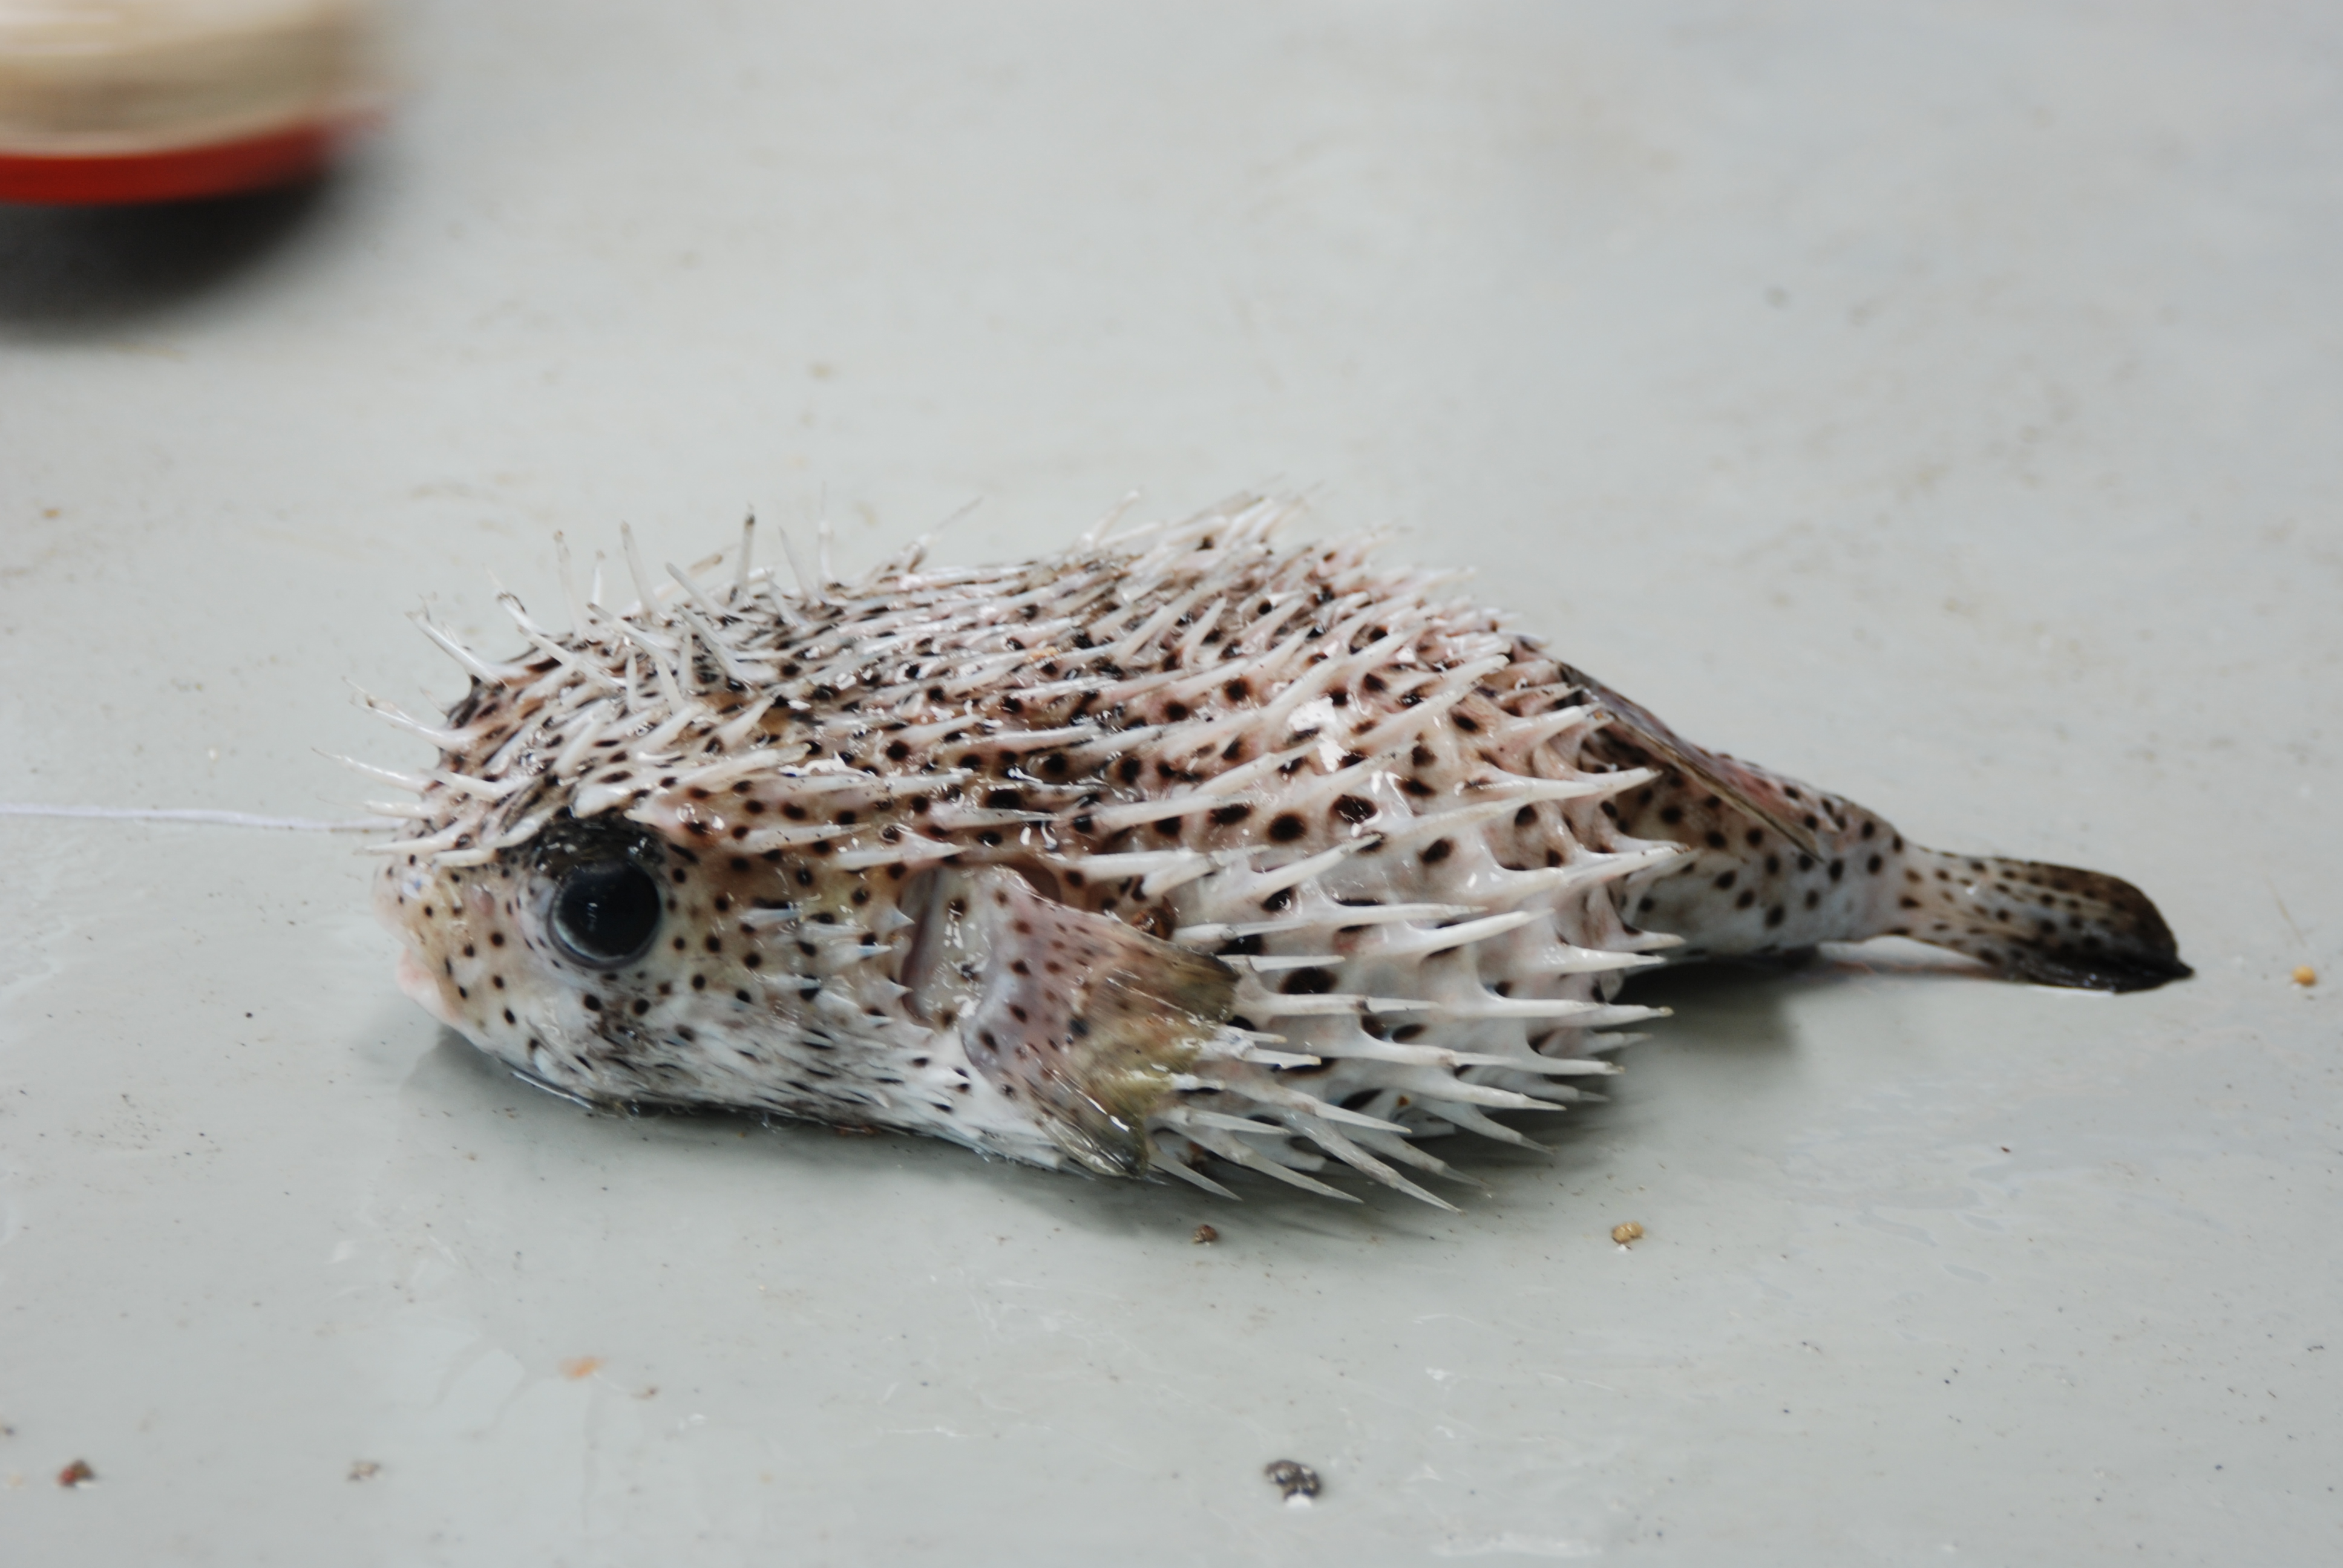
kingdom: Animalia
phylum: Chordata
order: Tetraodontiformes
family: Diodontidae
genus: Diodon
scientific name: Diodon hystrix
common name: Giant porcupinefish
